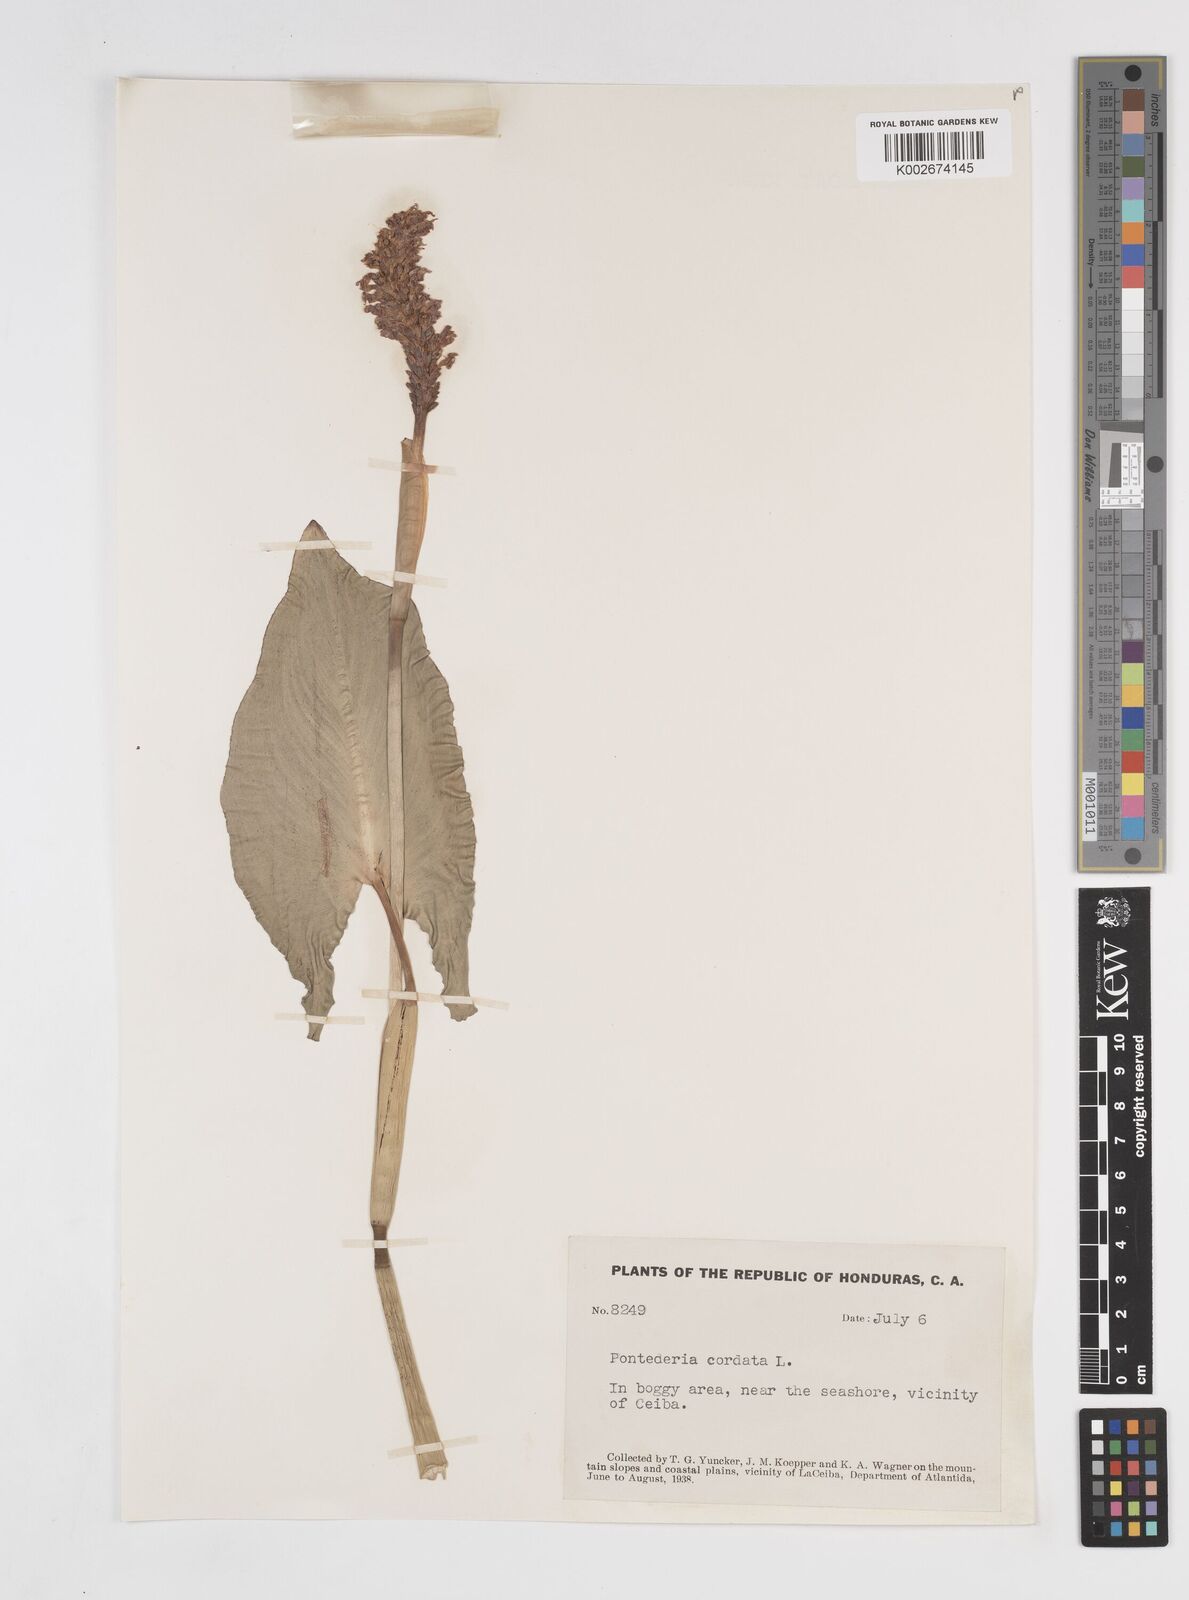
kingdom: Plantae
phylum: Tracheophyta
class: Liliopsida
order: Commelinales
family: Pontederiaceae
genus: Pontederia
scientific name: Pontederia sagittata
